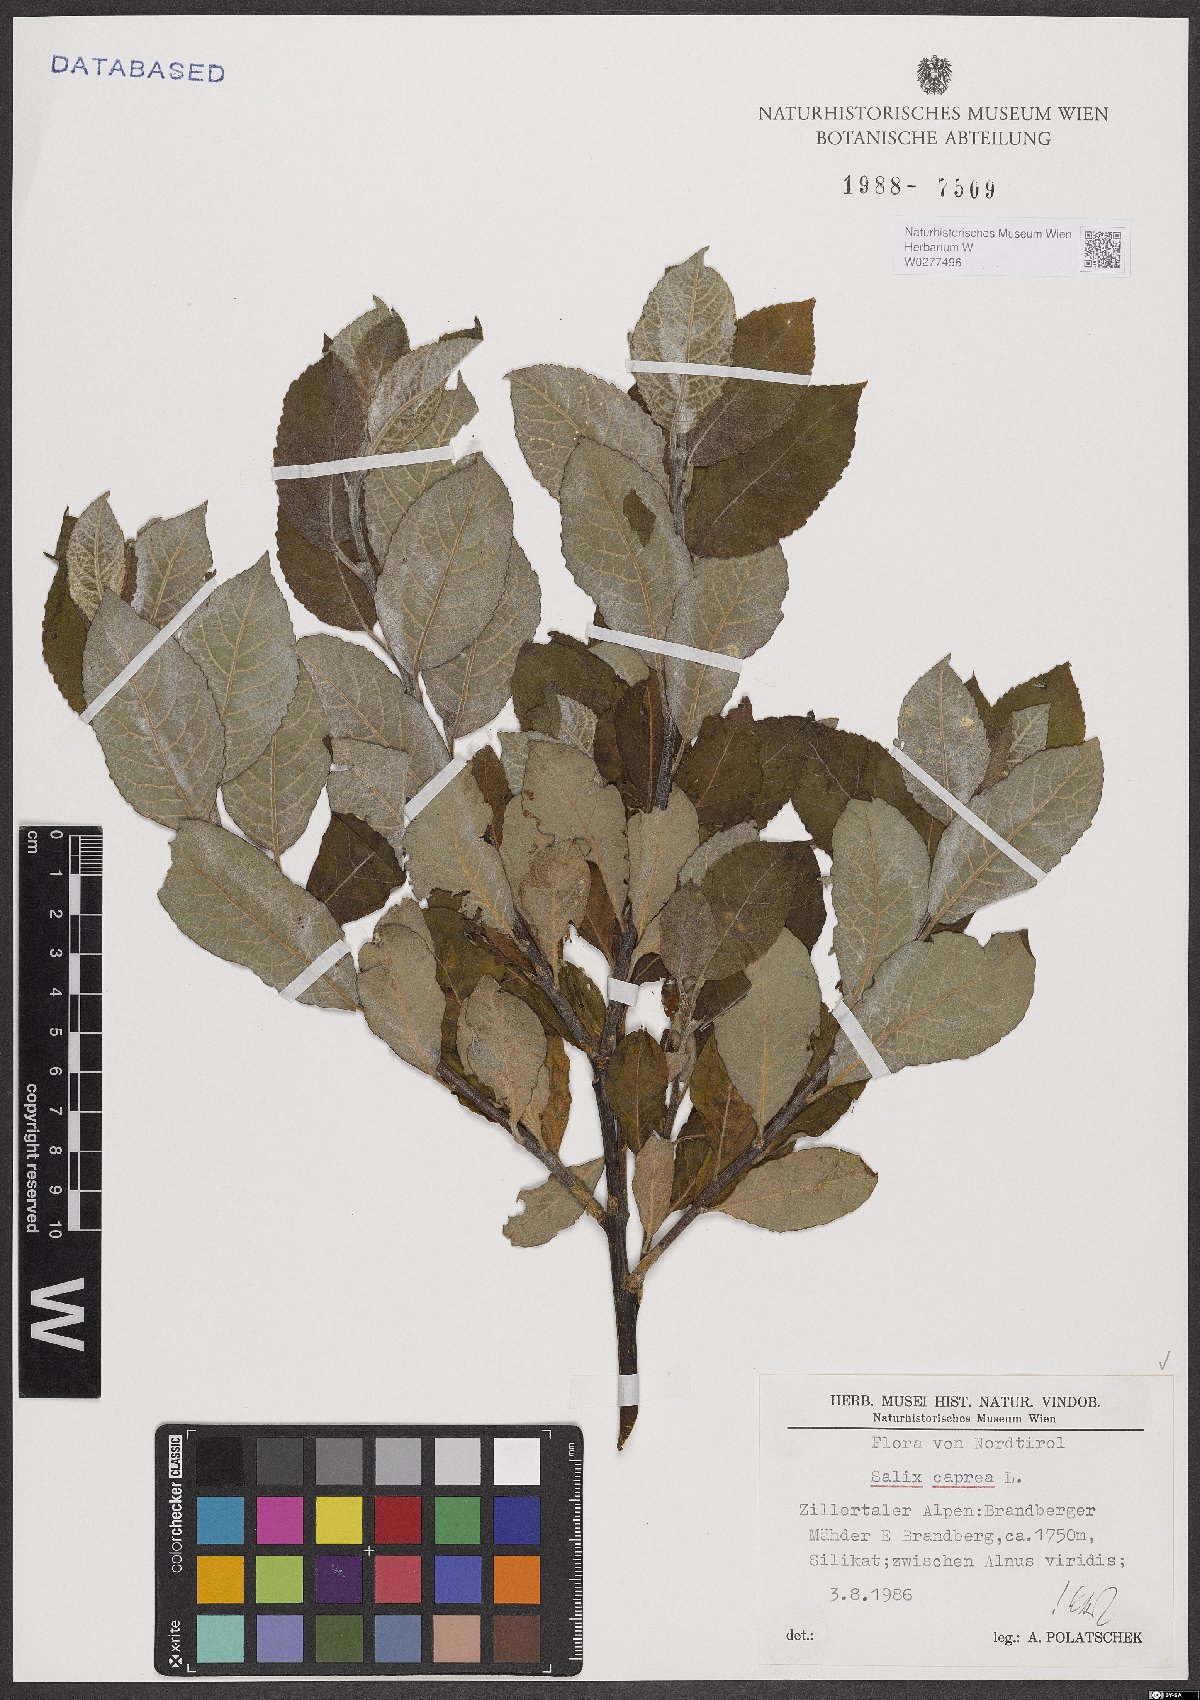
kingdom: Plantae
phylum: Tracheophyta
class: Magnoliopsida
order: Malpighiales
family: Salicaceae
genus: Salix
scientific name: Salix caprea
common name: Goat willow
